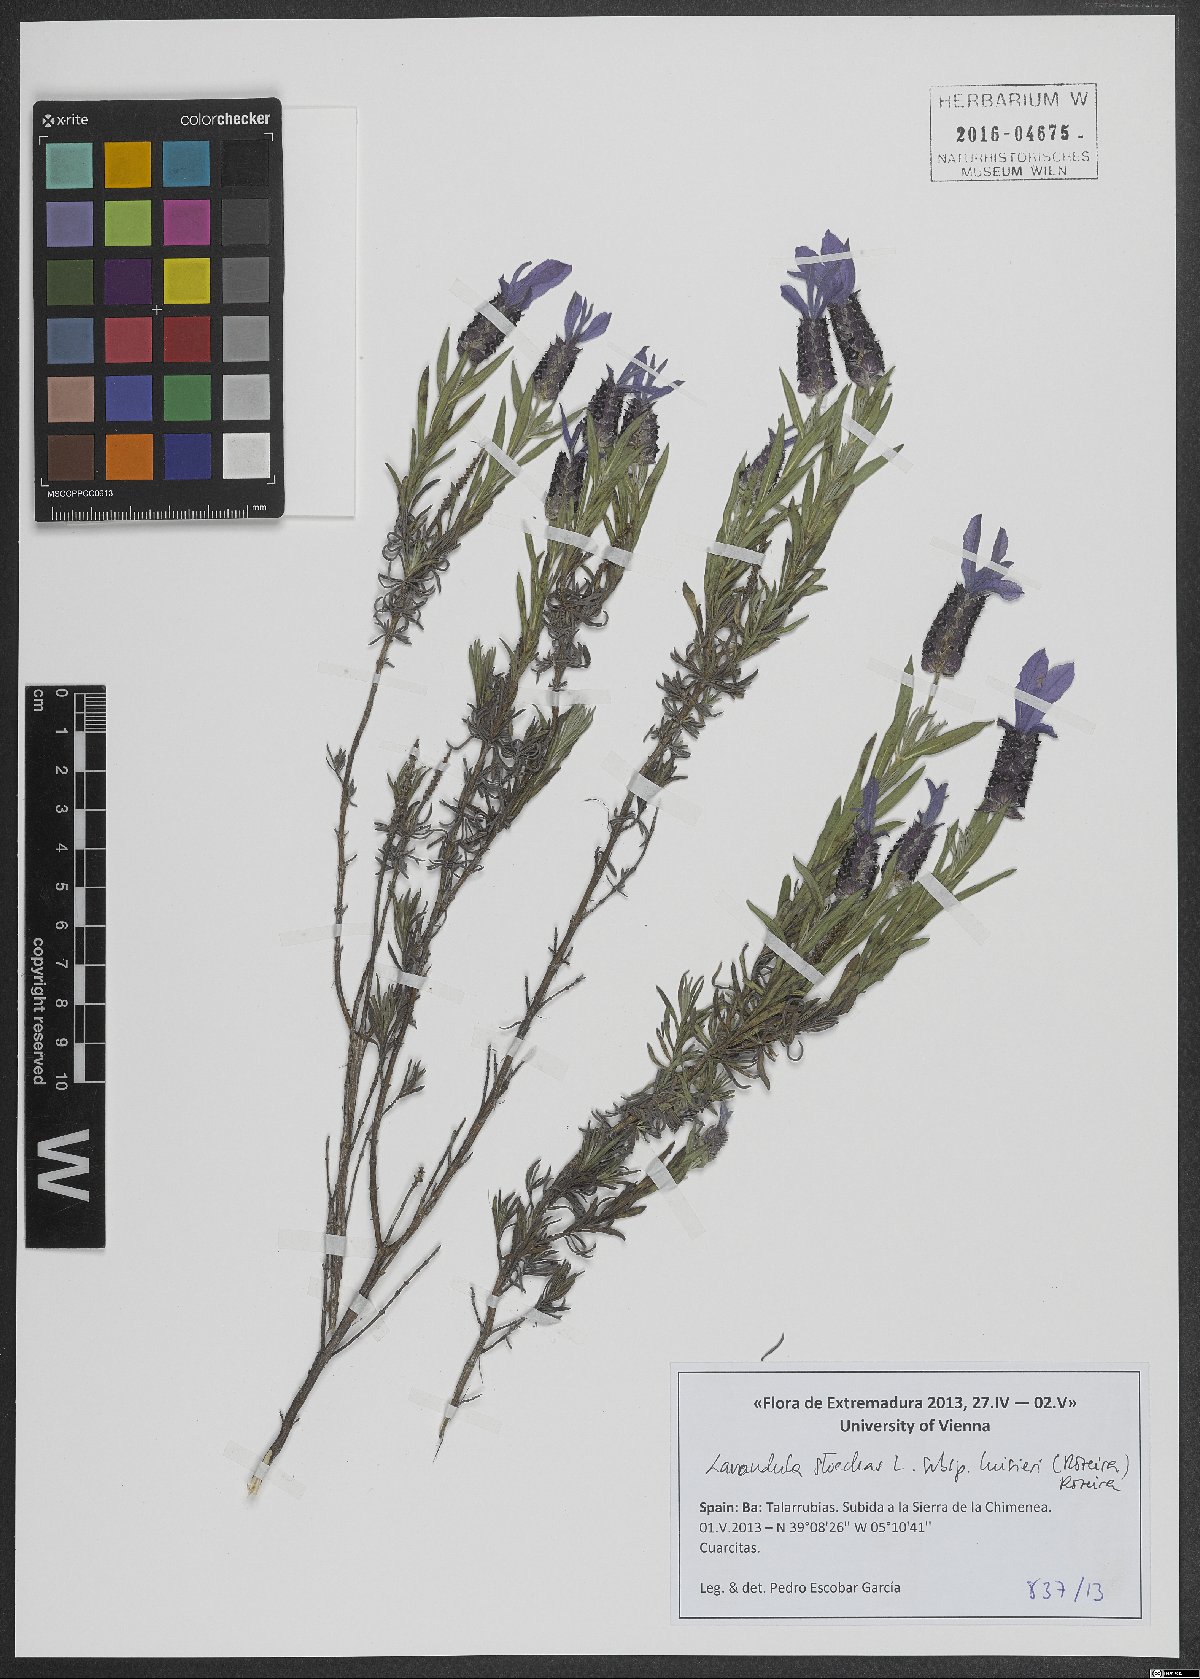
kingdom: Plantae
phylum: Tracheophyta
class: Magnoliopsida
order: Lamiales
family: Lamiaceae
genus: Lavandula
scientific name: Lavandula stoechas
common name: French lavender
